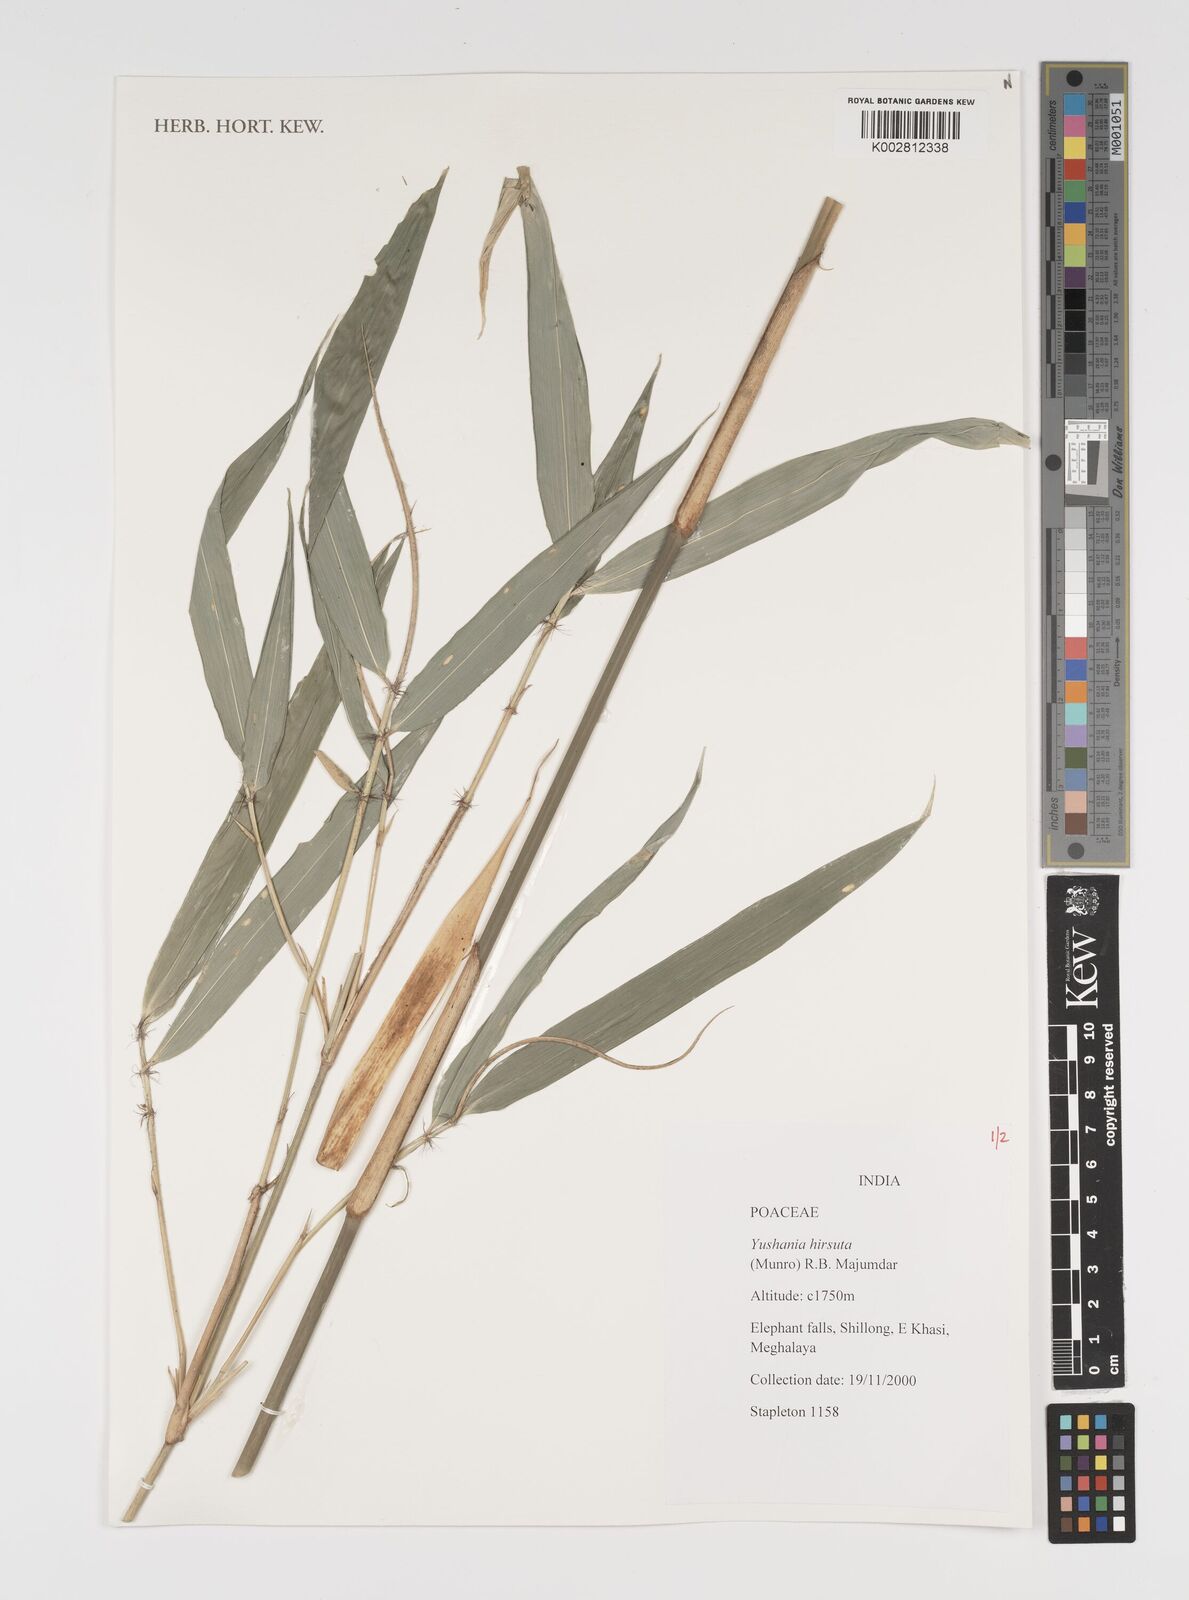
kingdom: Plantae
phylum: Tracheophyta
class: Liliopsida
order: Poales
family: Poaceae
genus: Yushania
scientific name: Yushania hirsuta
